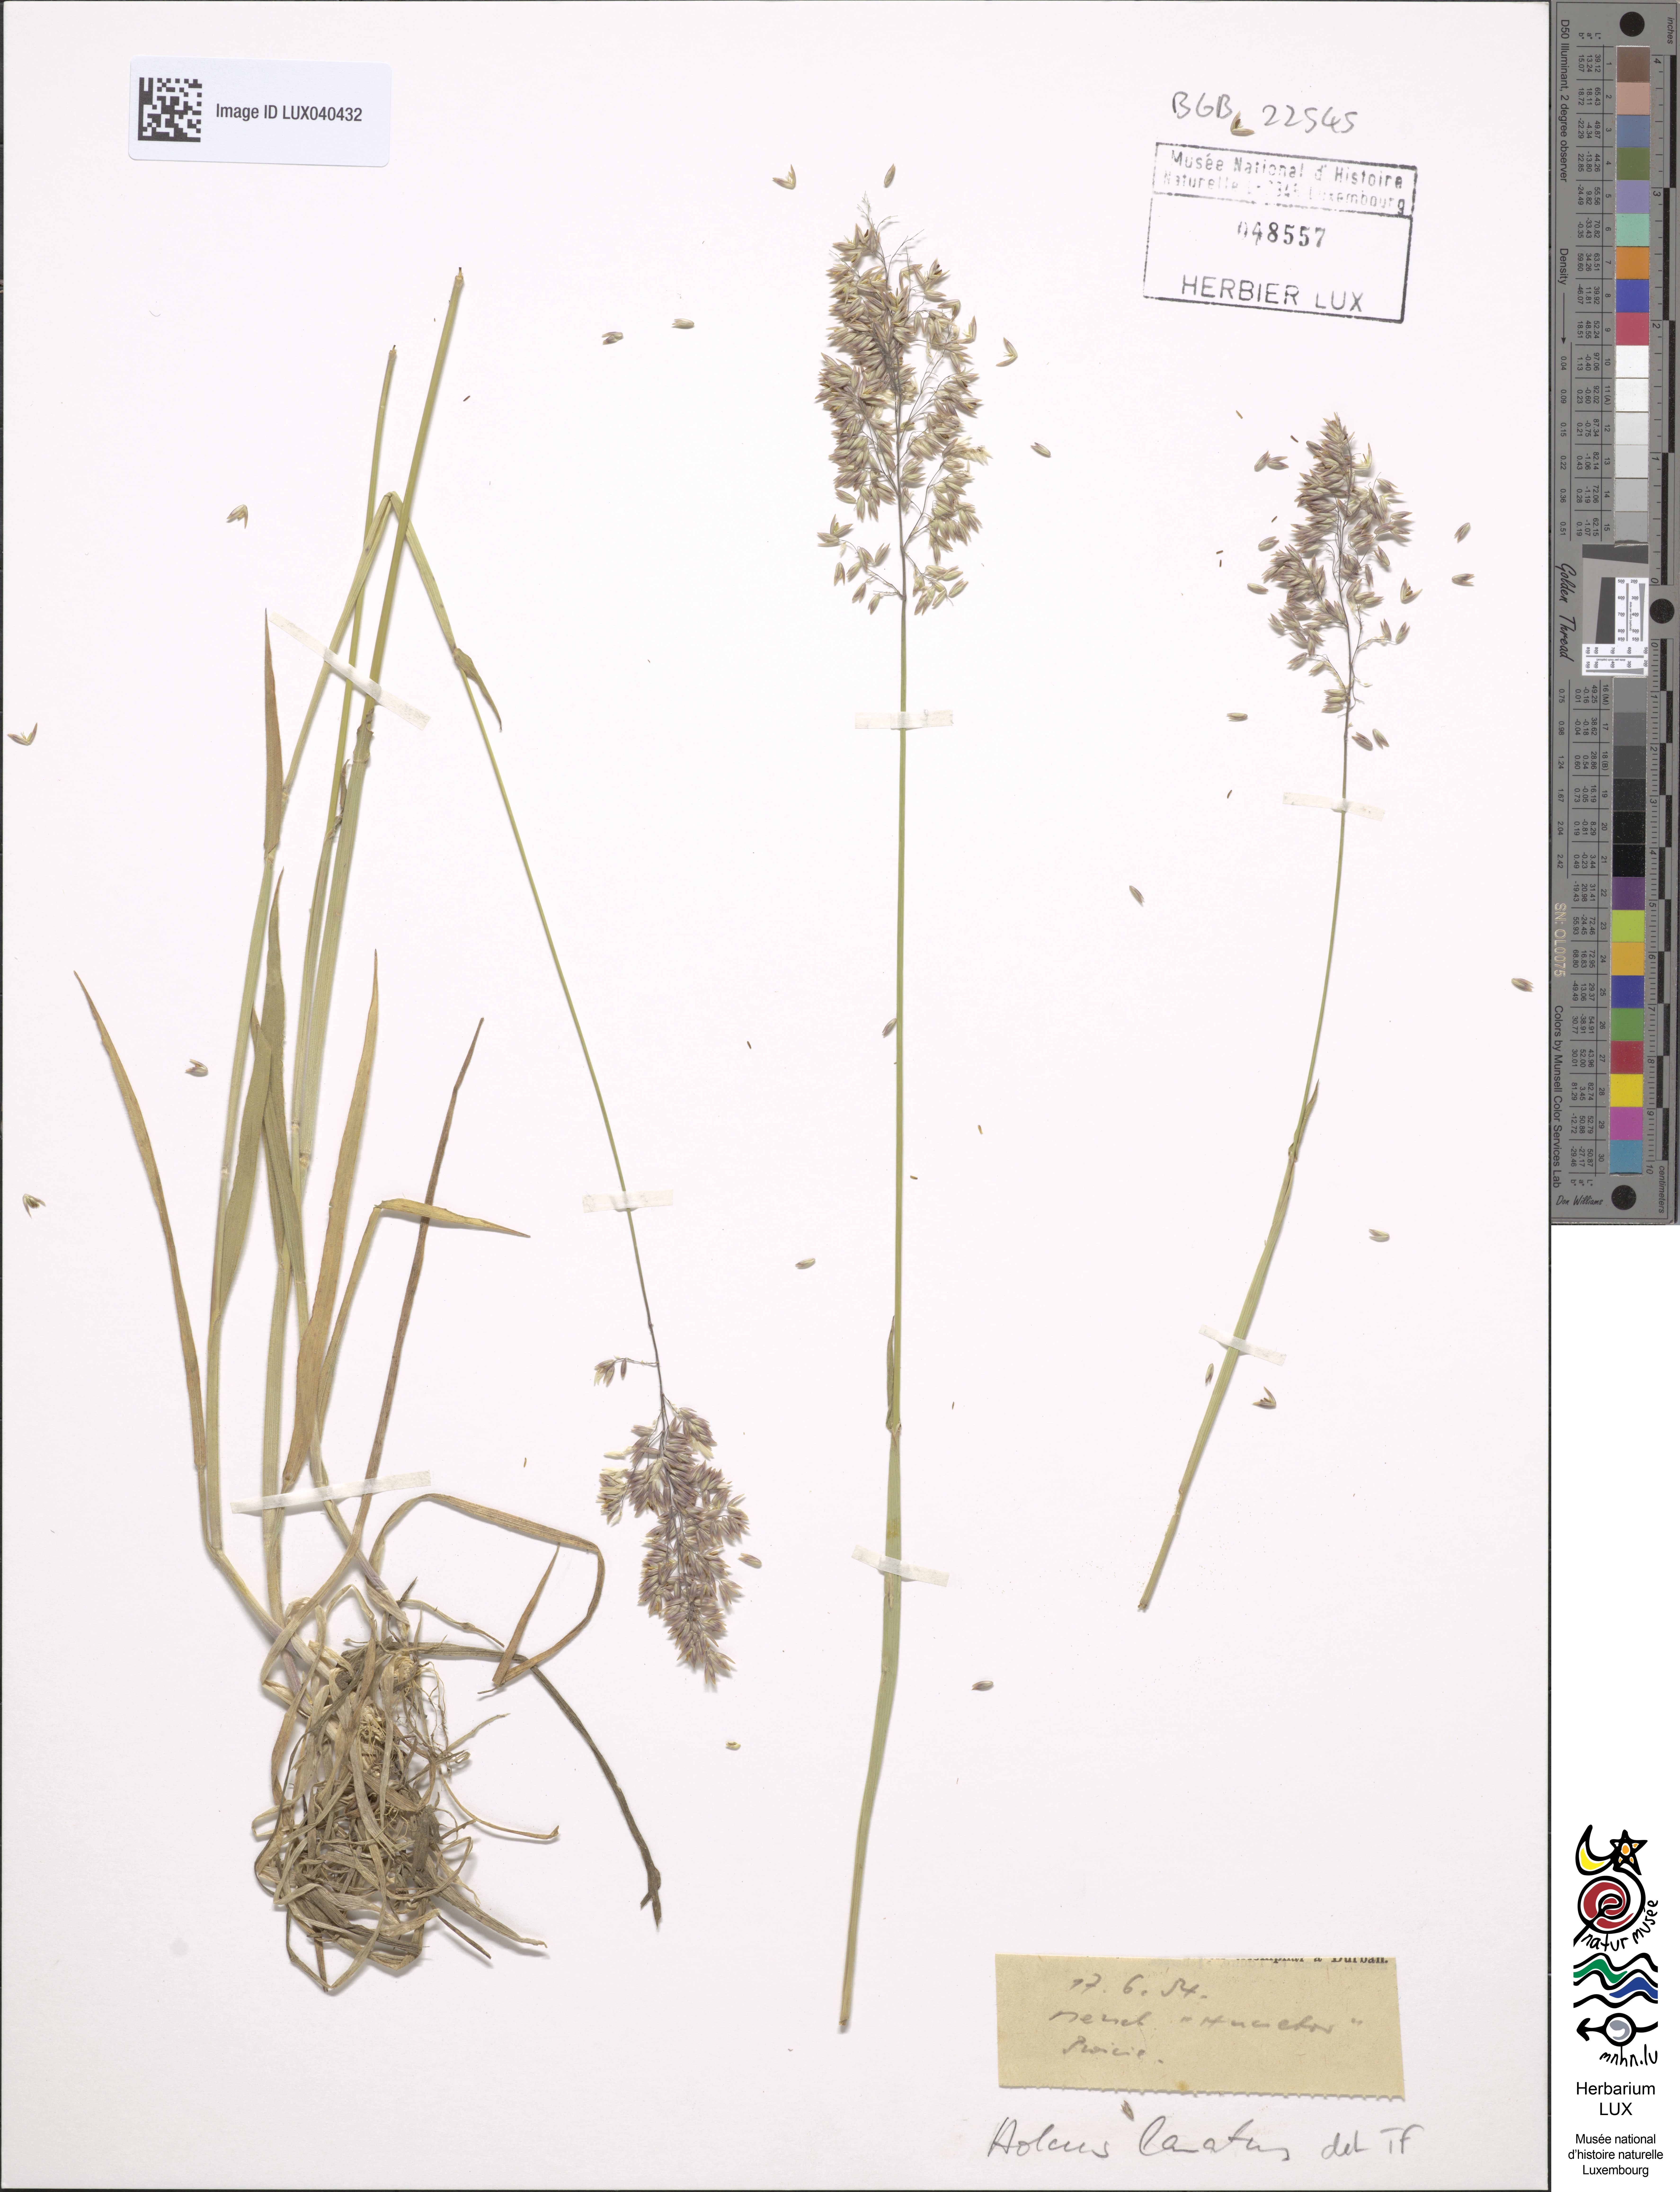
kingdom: Plantae
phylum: Tracheophyta
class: Liliopsida
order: Poales
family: Poaceae
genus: Holcus
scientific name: Holcus lanatus
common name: Yorkshire-fog
